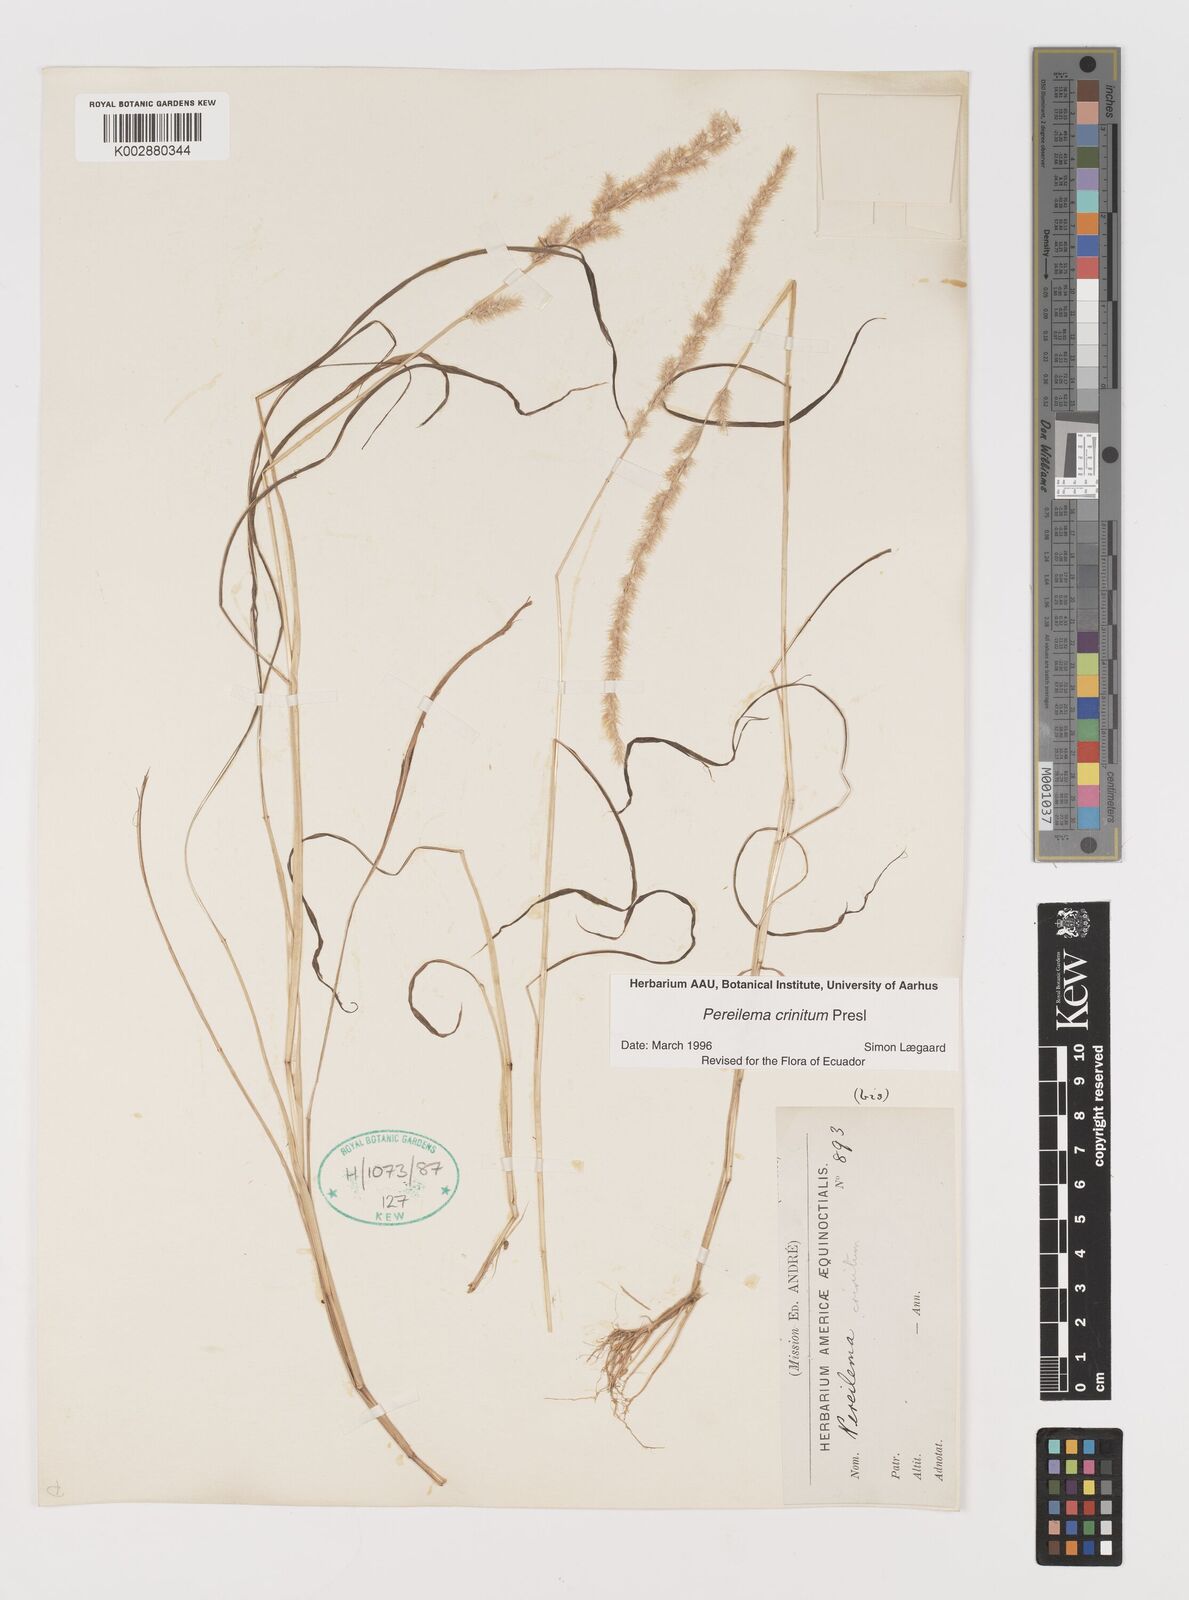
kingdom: Plantae
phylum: Tracheophyta
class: Liliopsida
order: Poales
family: Poaceae
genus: Muhlenbergia
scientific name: Muhlenbergia pereilema
